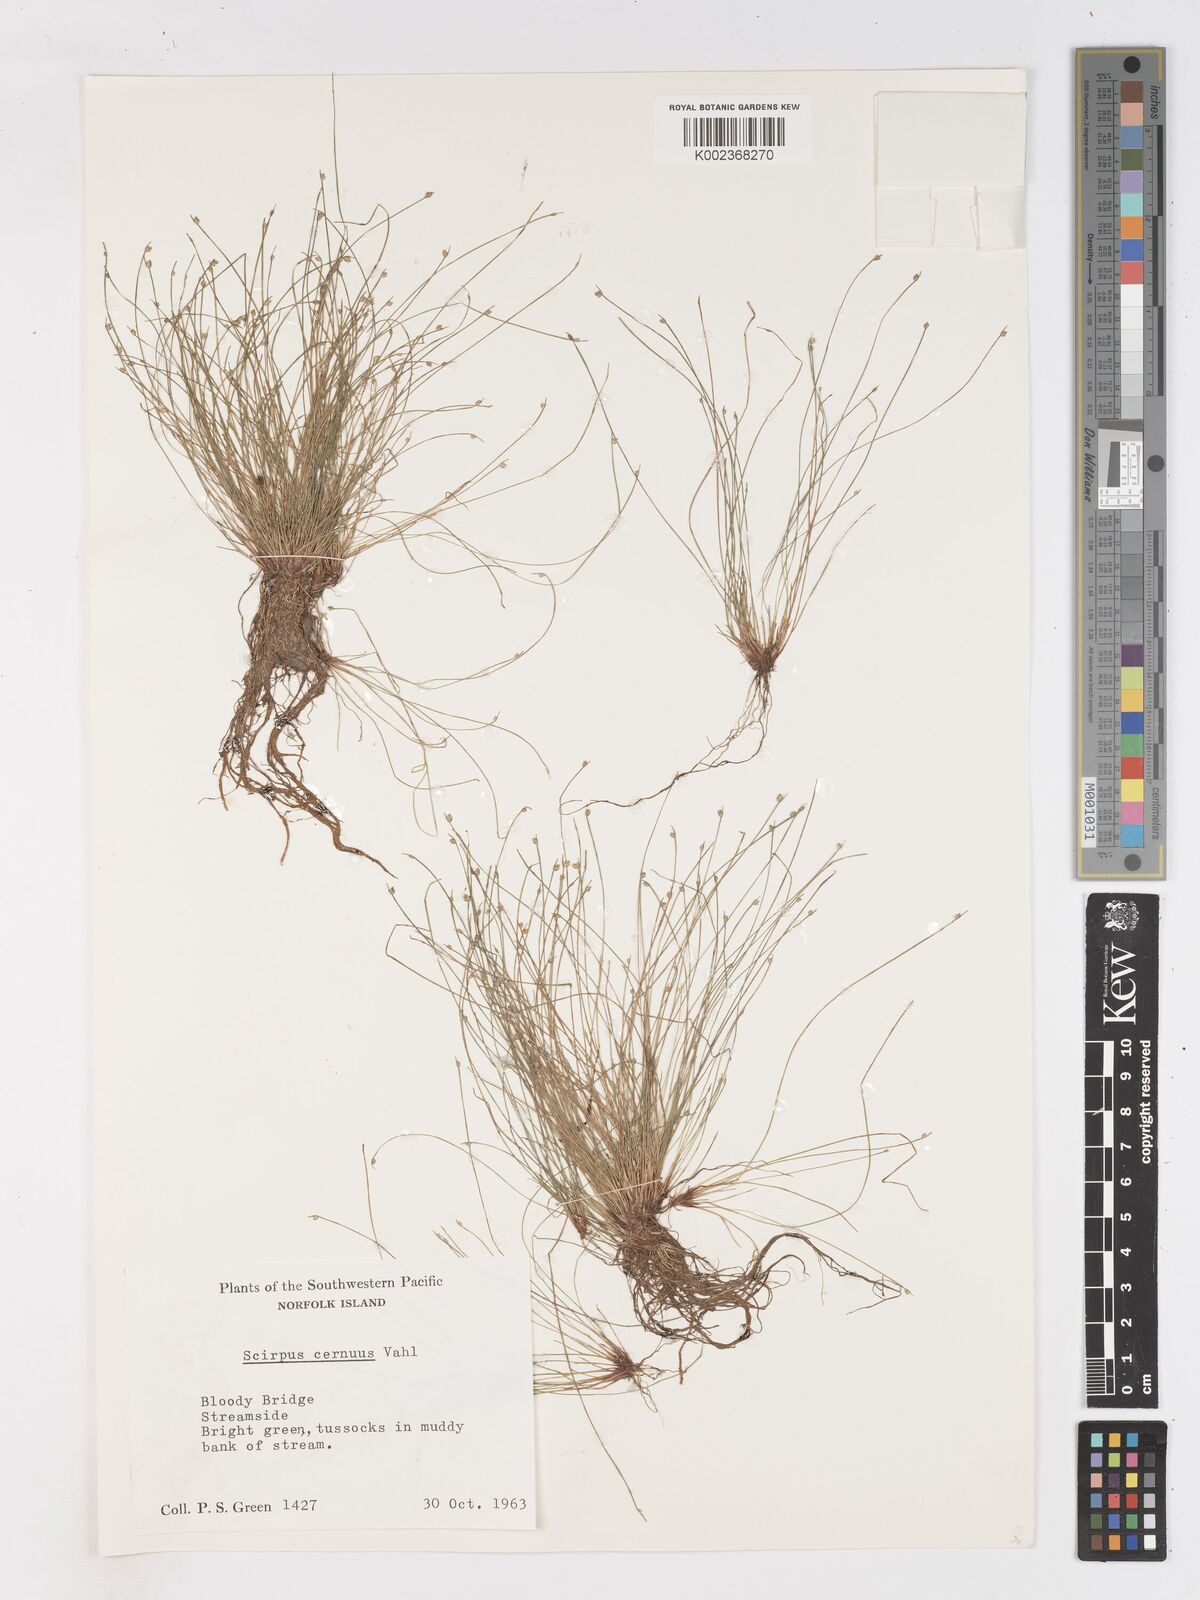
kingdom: Plantae
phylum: Tracheophyta
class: Liliopsida
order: Poales
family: Cyperaceae
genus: Isolepis
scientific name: Isolepis cernua
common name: Slender club-rush
